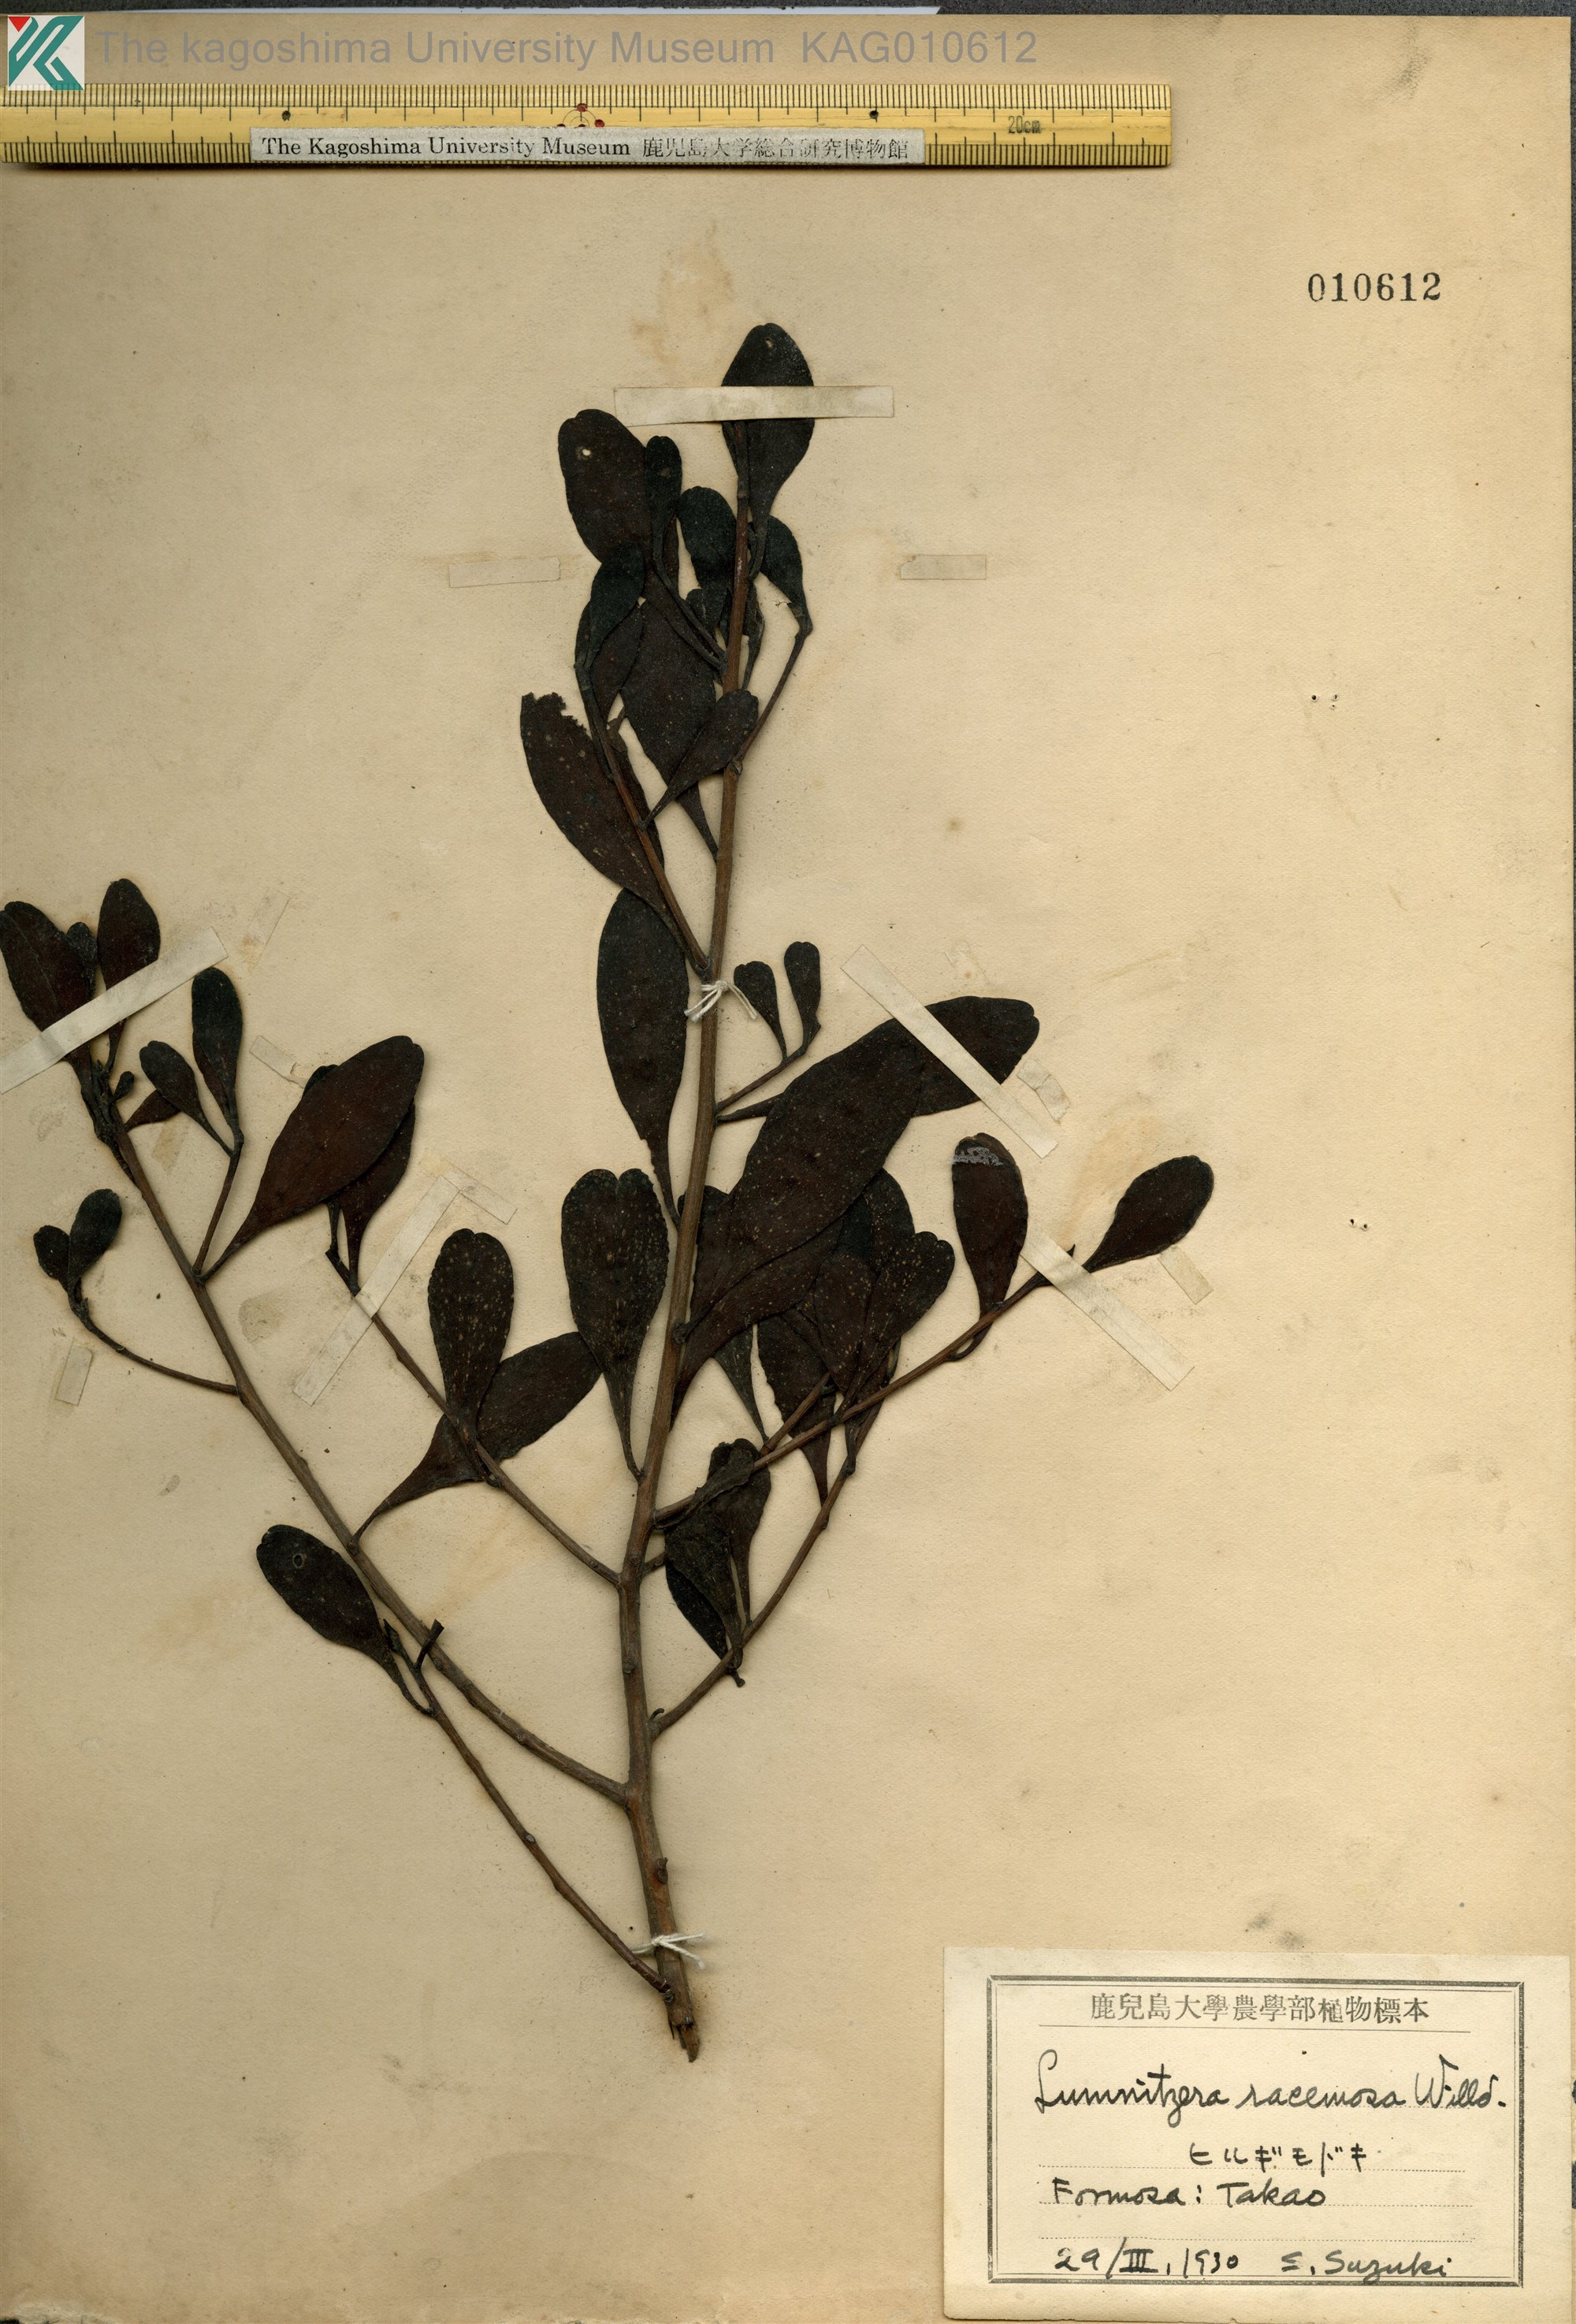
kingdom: Plantae
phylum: Tracheophyta
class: Magnoliopsida
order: Myrtales
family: Combretaceae
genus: Lumnitzera
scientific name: Lumnitzera racemosa
